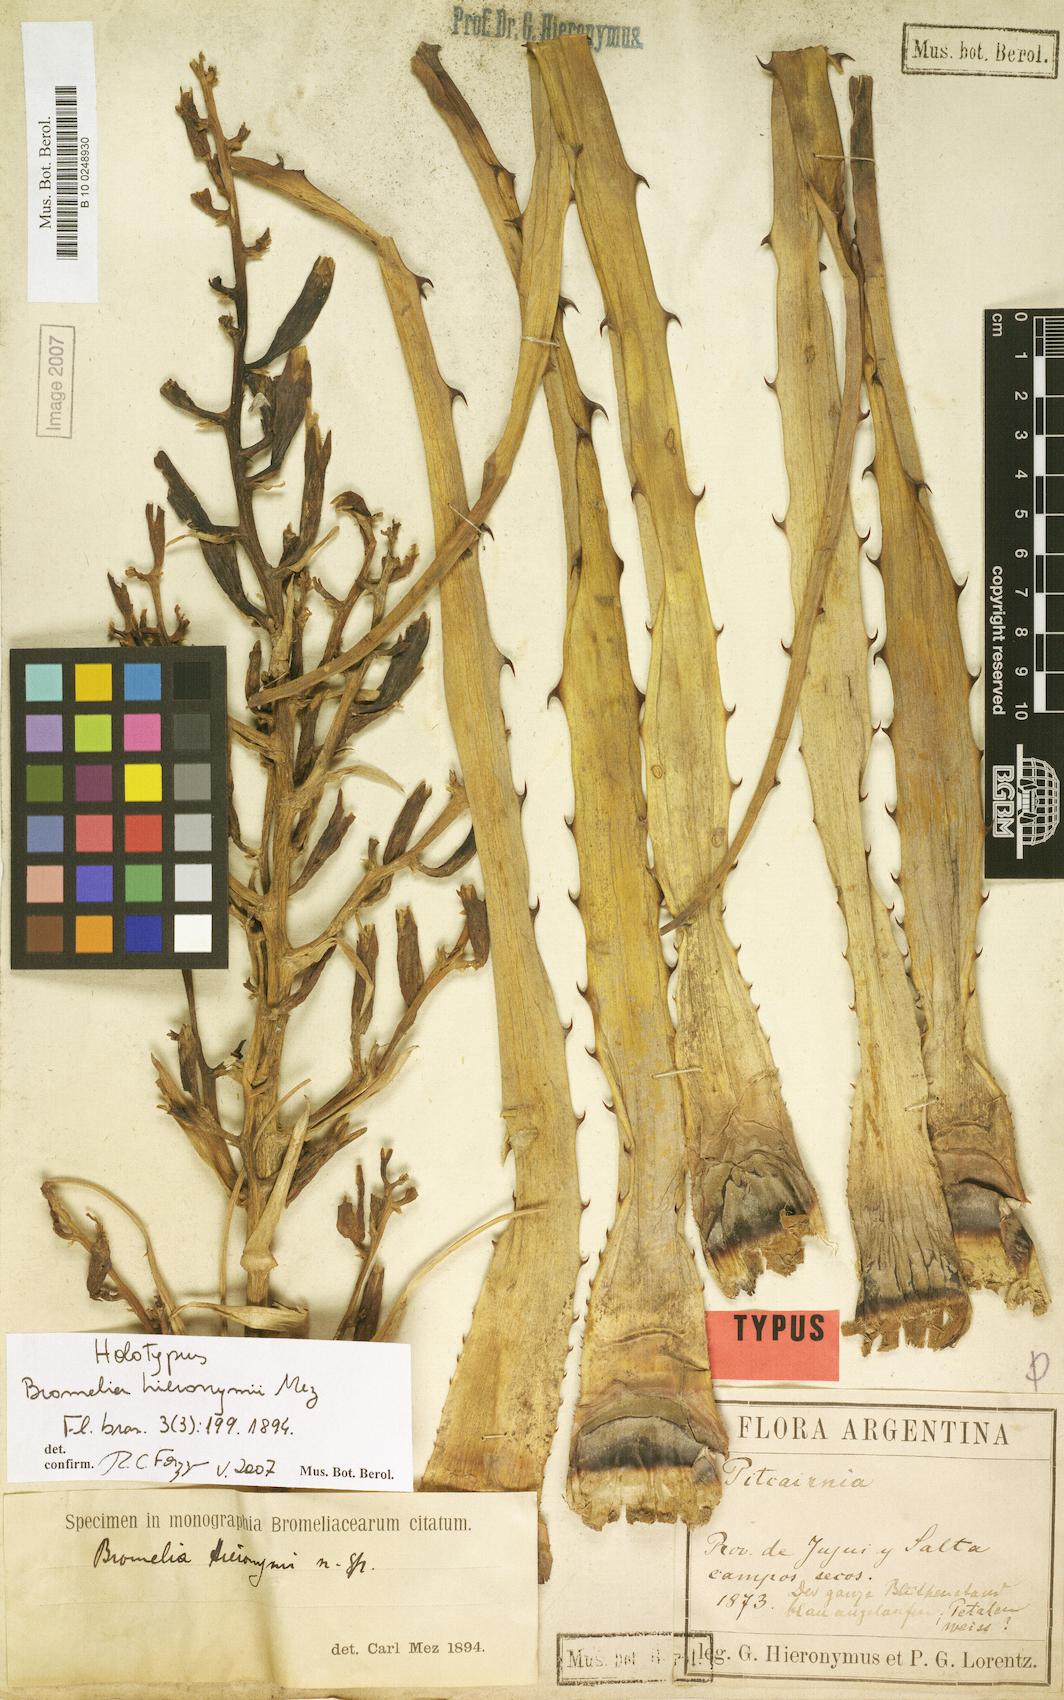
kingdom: Plantae
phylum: Tracheophyta
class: Liliopsida
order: Poales
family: Bromeliaceae
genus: Bromelia
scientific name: Bromelia hieronymi
